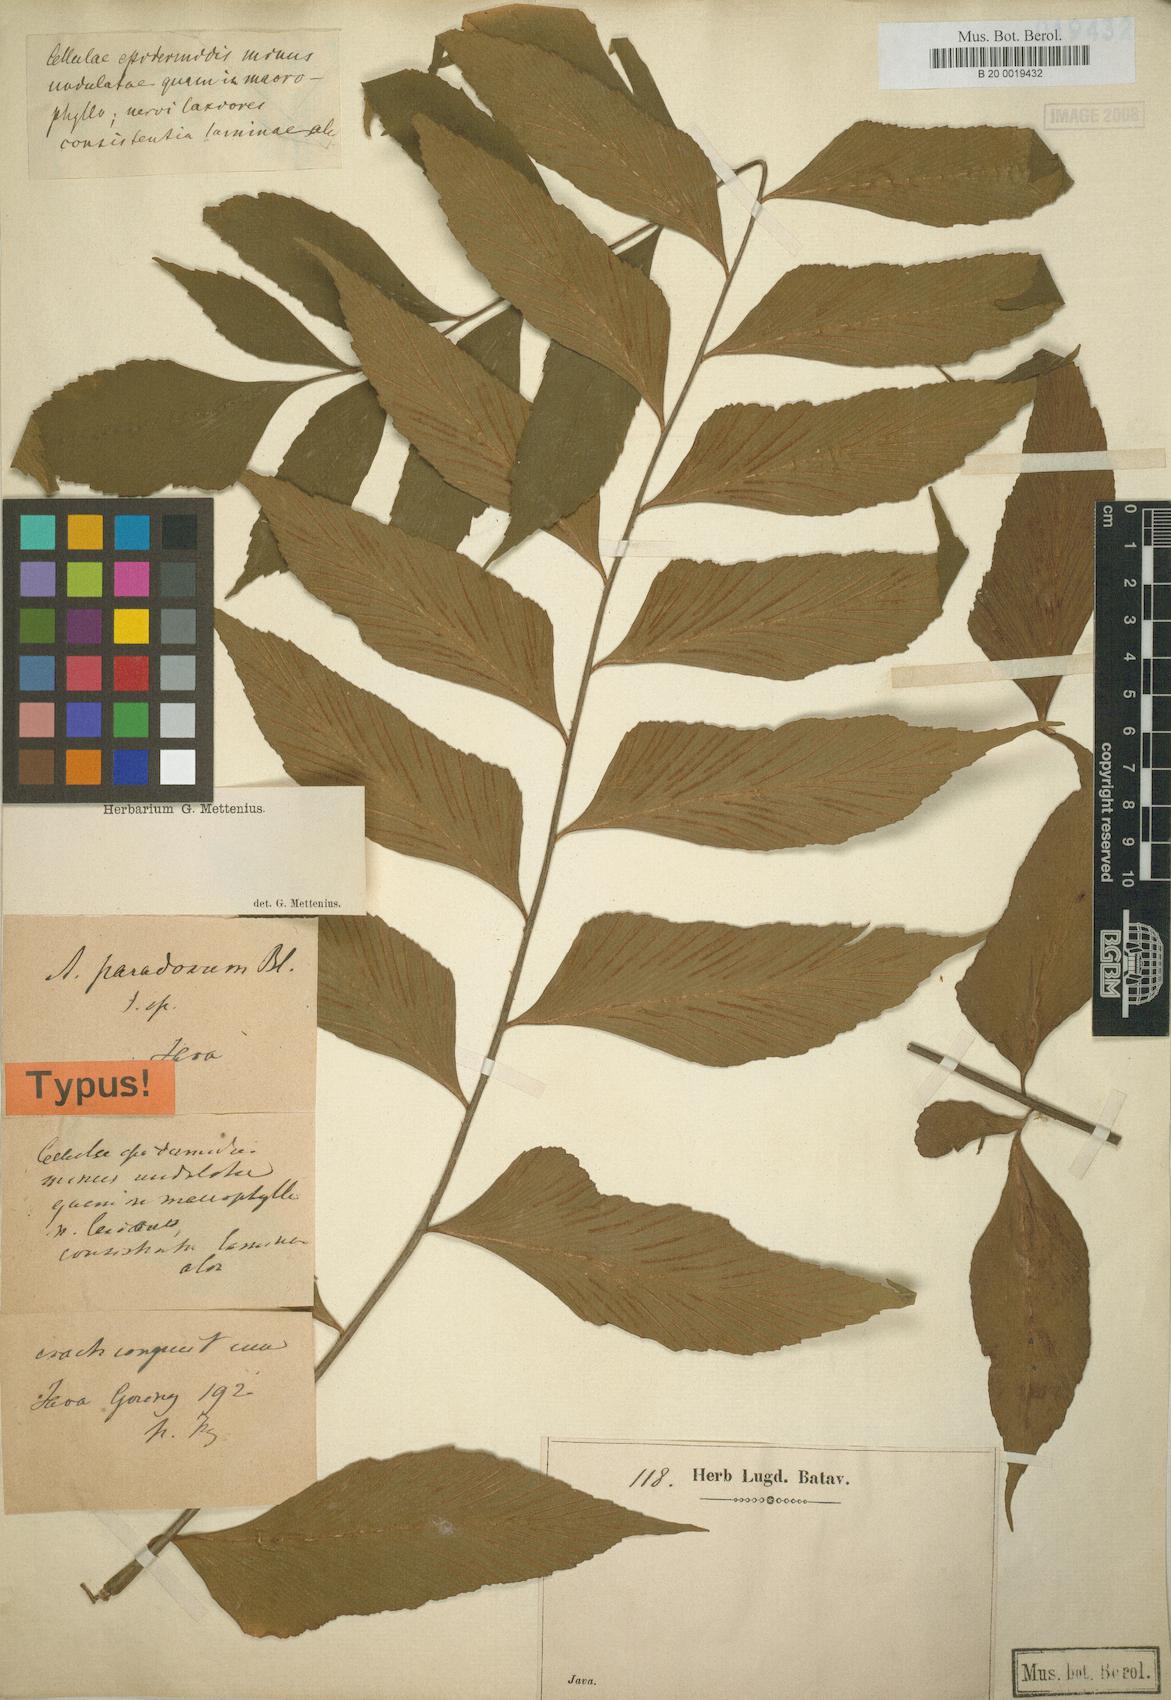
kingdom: Plantae
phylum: Tracheophyta
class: Polypodiopsida
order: Polypodiales
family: Aspleniaceae
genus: Asplenium
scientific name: Asplenium falcatum
